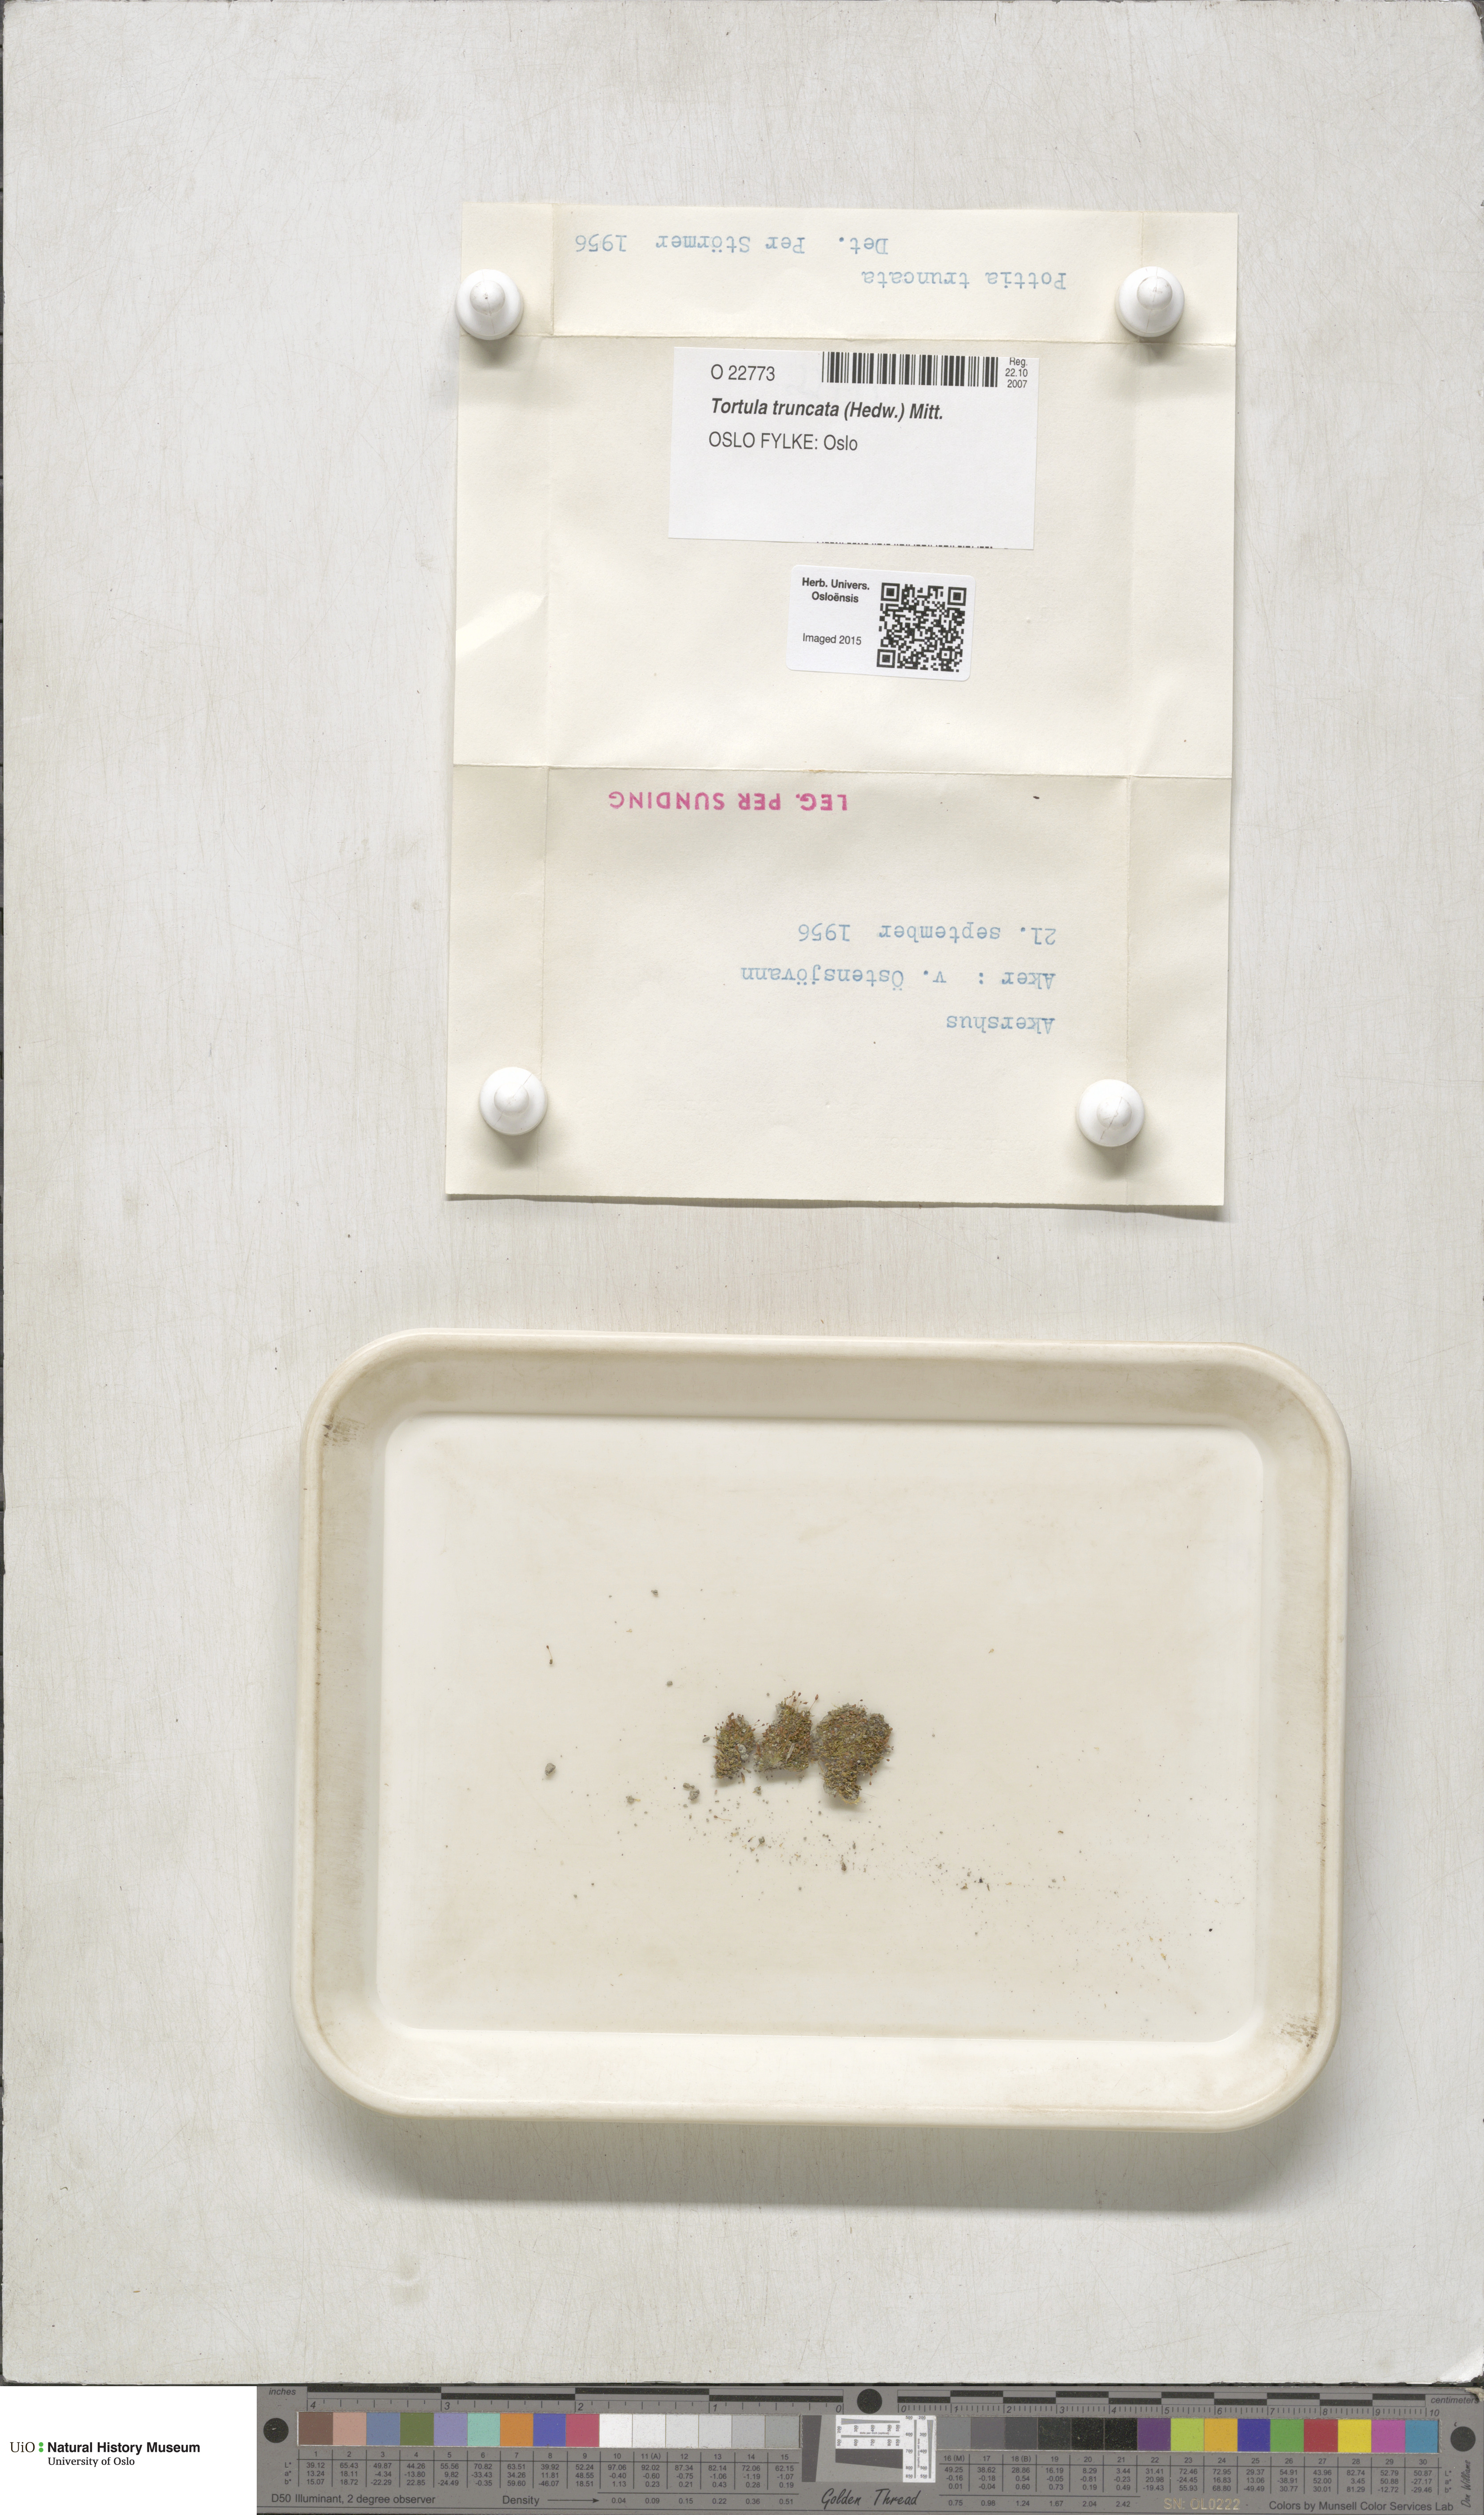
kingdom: Plantae
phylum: Bryophyta
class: Bryopsida
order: Pottiales
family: Pottiaceae
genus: Tortula
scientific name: Tortula truncata
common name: Truncated screw moss
